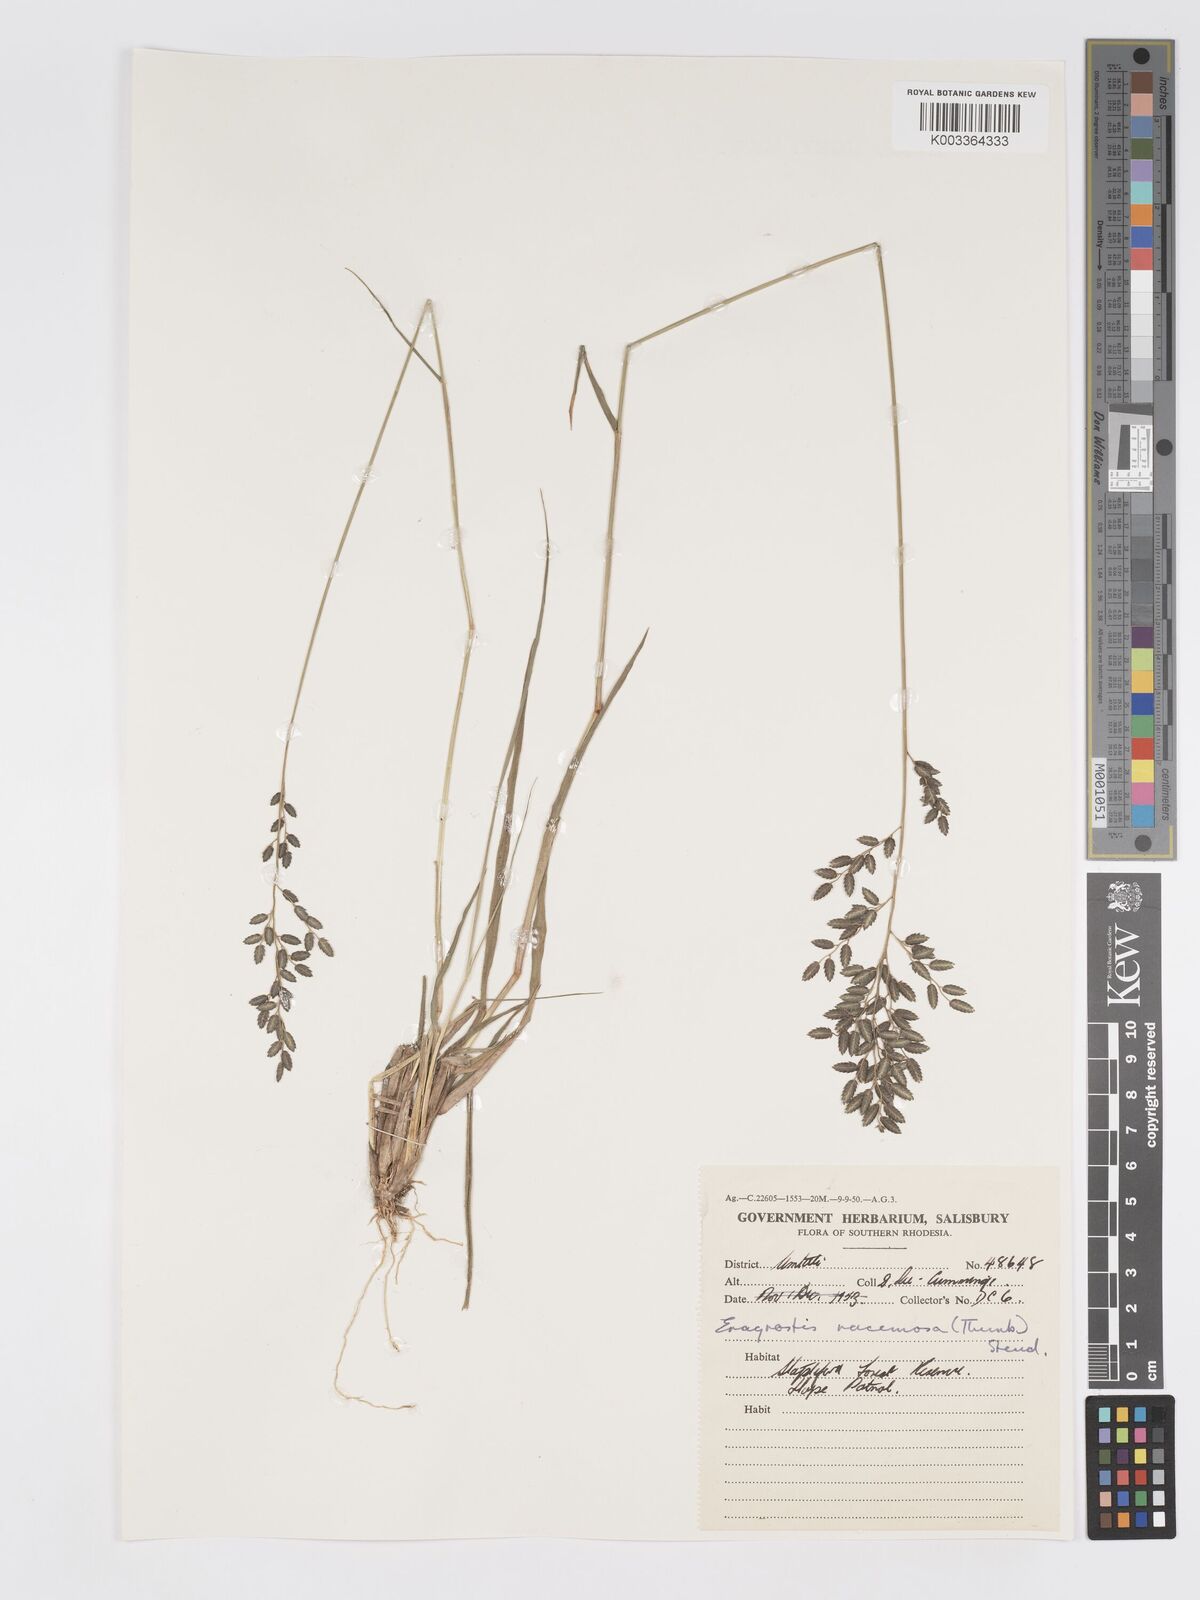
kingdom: Plantae
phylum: Tracheophyta
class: Liliopsida
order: Poales
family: Poaceae
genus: Eragrostis
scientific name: Eragrostis racemosa
